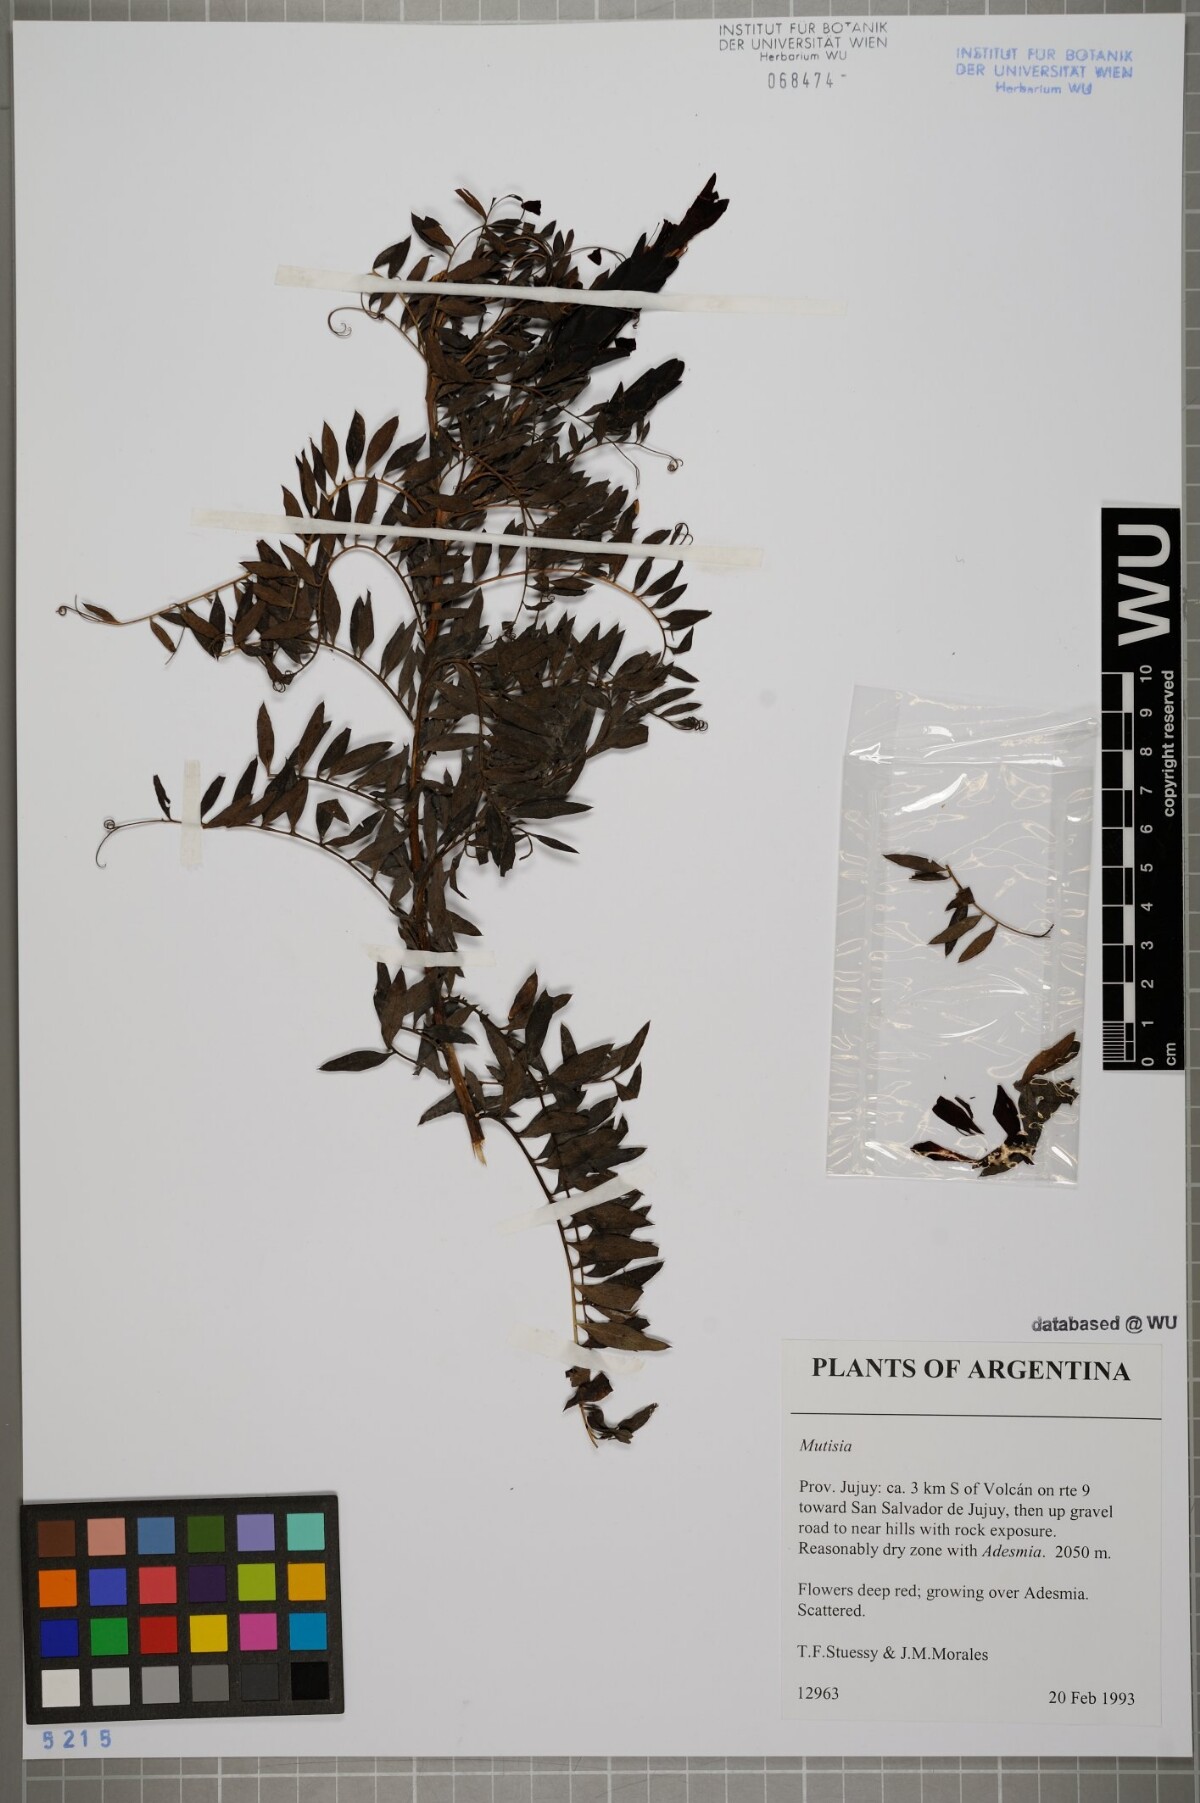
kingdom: Plantae
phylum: Tracheophyta
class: Magnoliopsida
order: Asterales
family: Asteraceae
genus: Mutisia
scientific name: Mutisia
